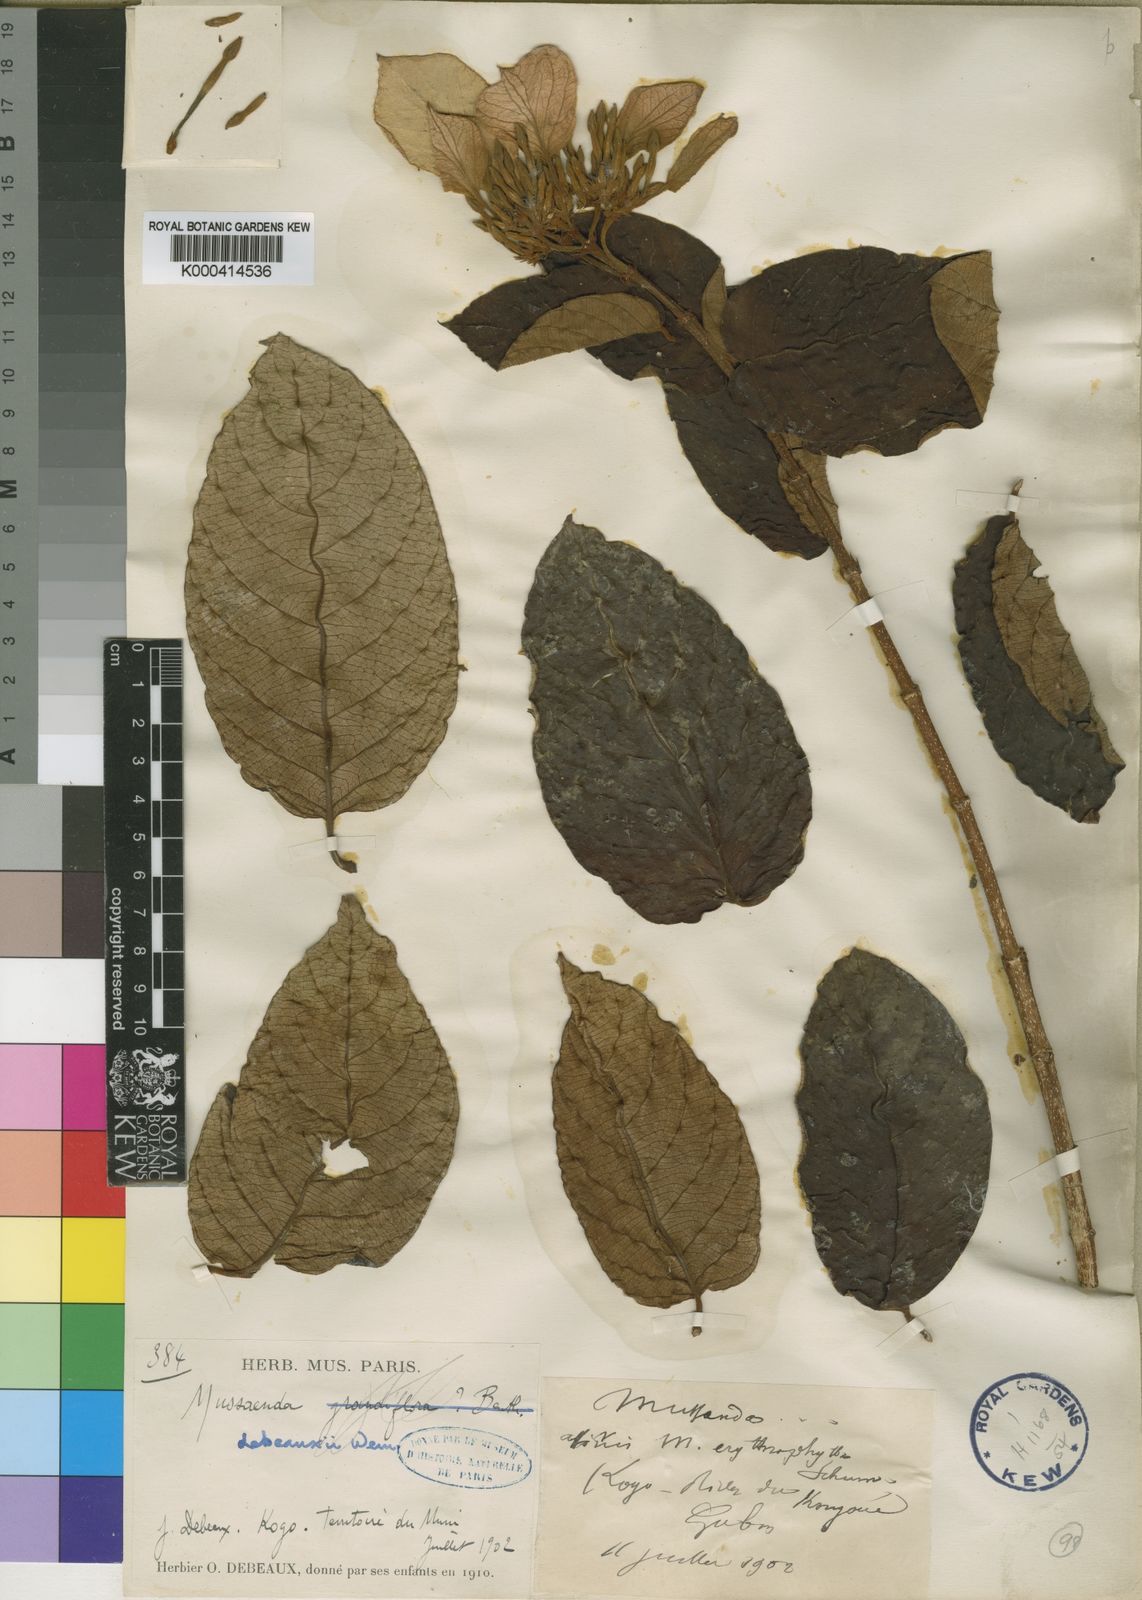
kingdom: Plantae
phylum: Tracheophyta
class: Magnoliopsida
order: Gentianales
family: Rubiaceae
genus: Mussaenda
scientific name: Mussaenda debeauxii
